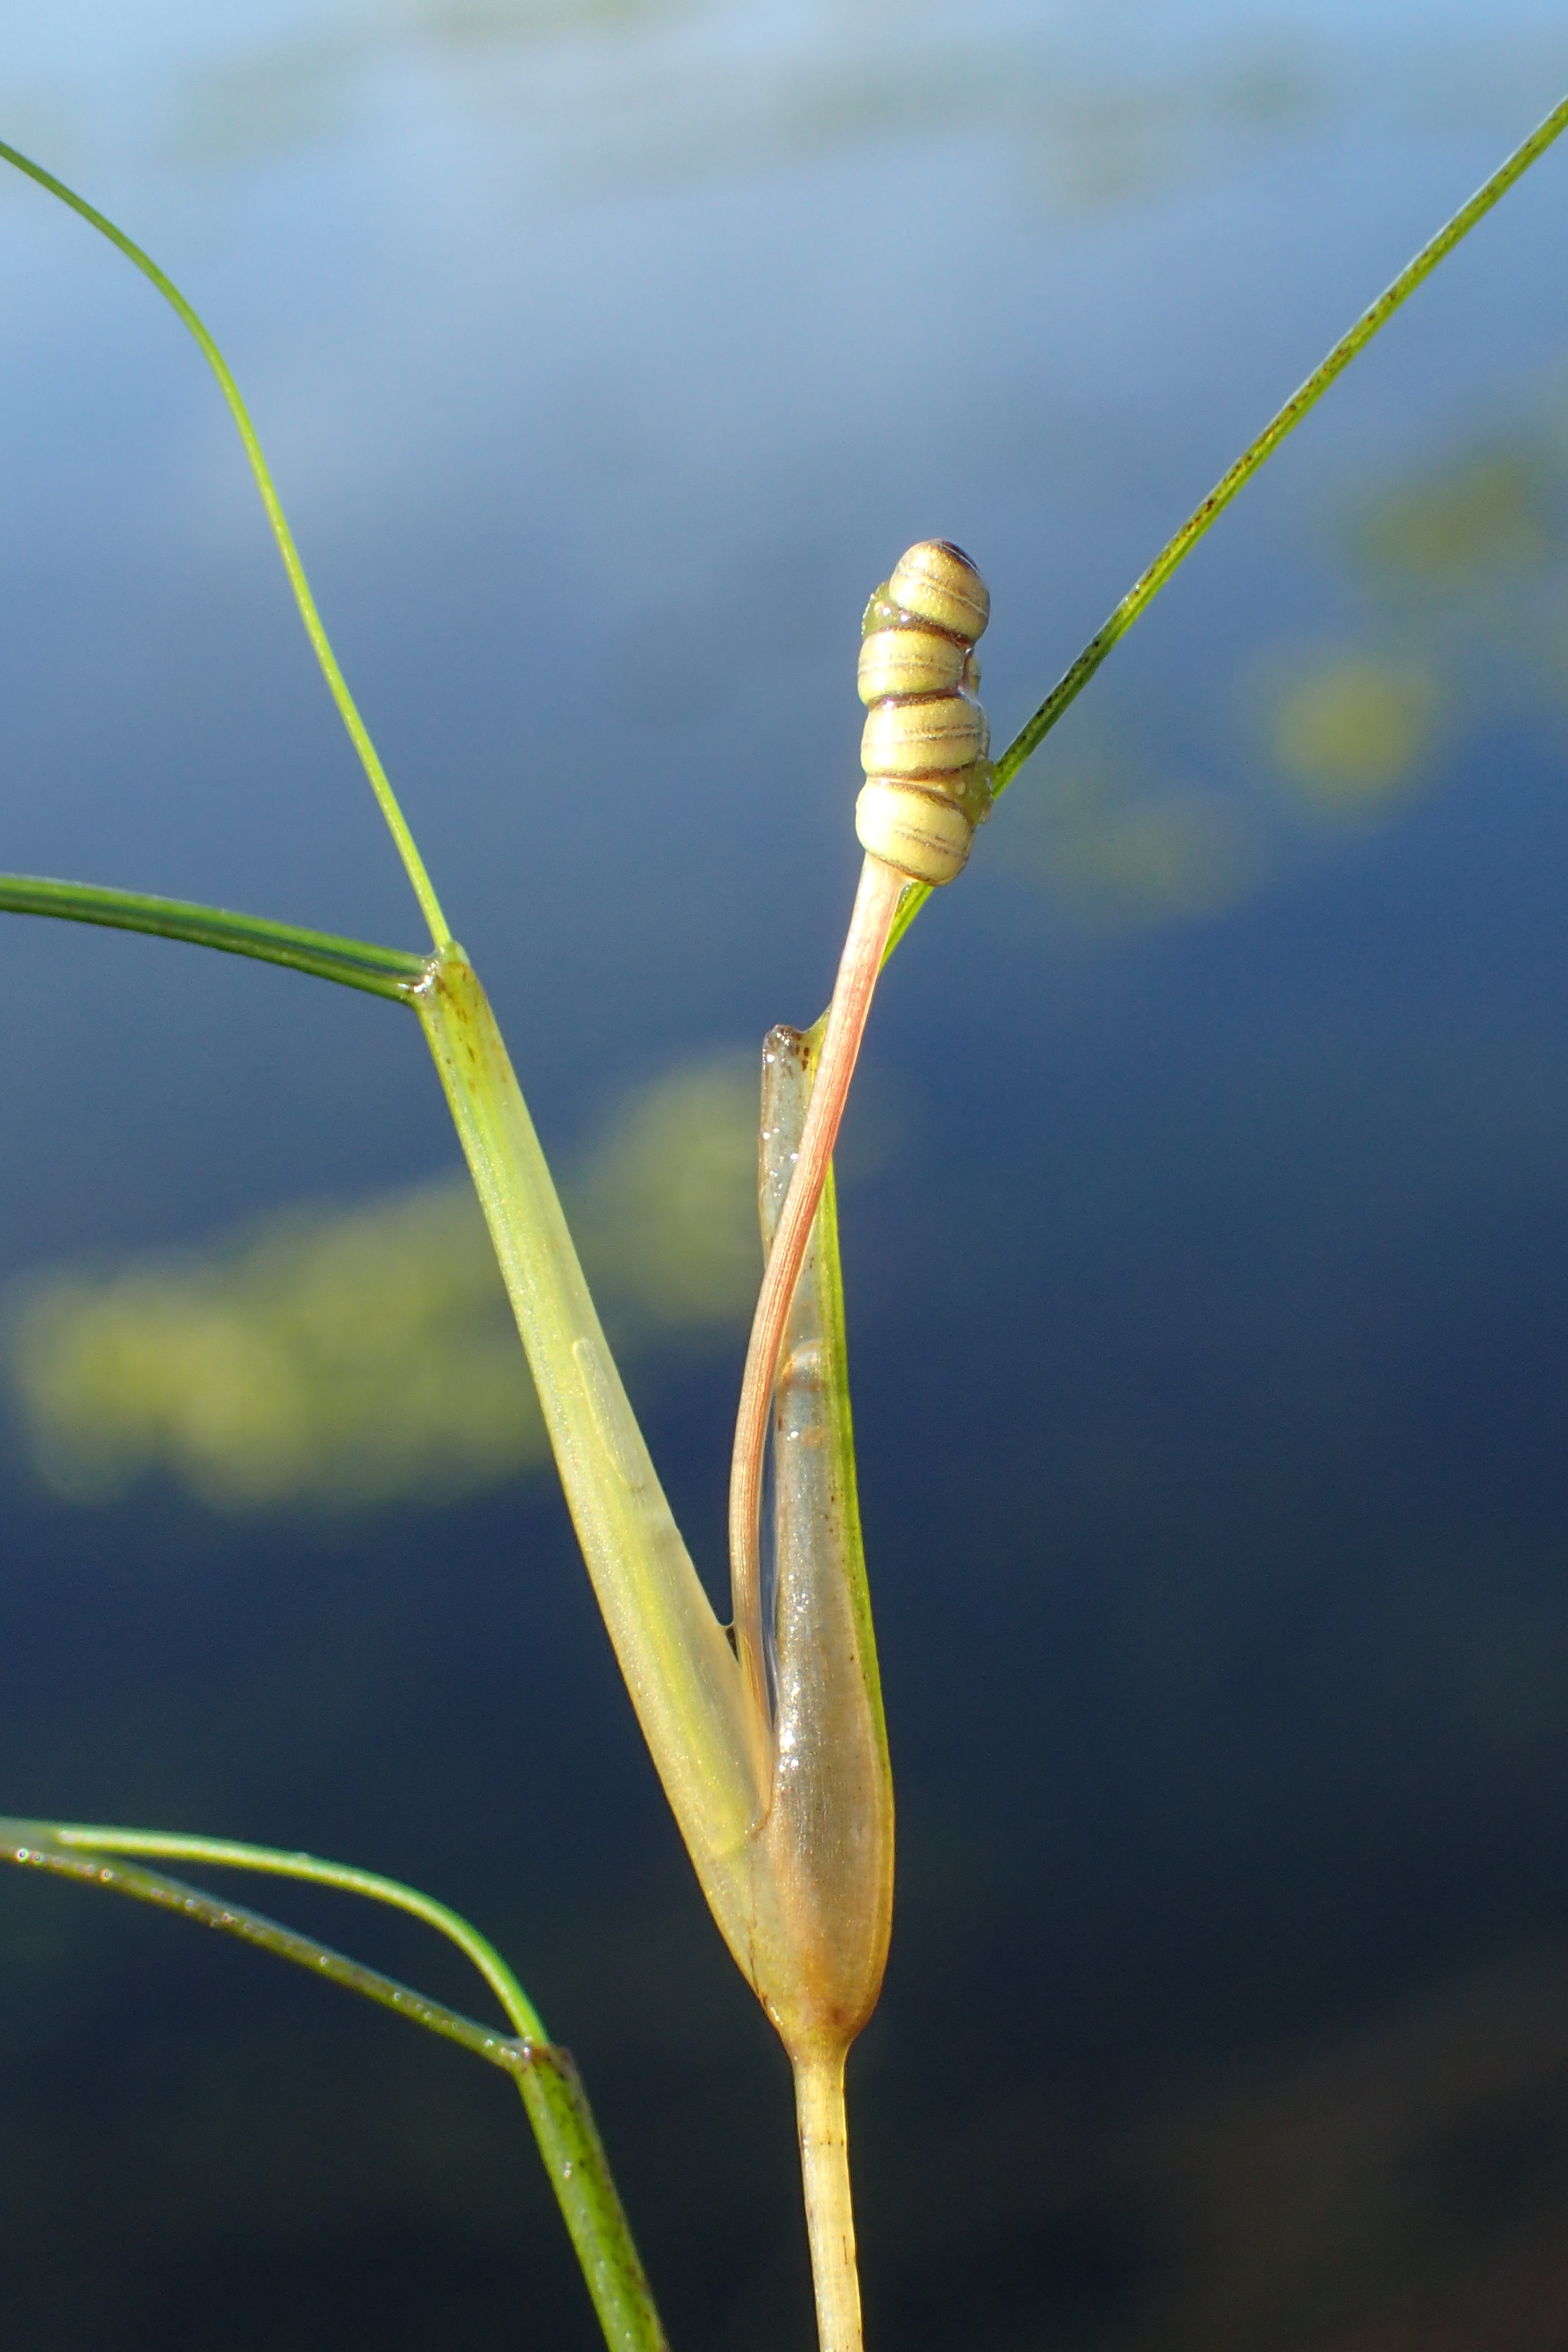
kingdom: Plantae
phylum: Tracheophyta
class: Liliopsida
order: Alismatales
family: Ruppiaceae
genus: Ruppia
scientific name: Ruppia cirrhosa
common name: Langstilket havgræs
